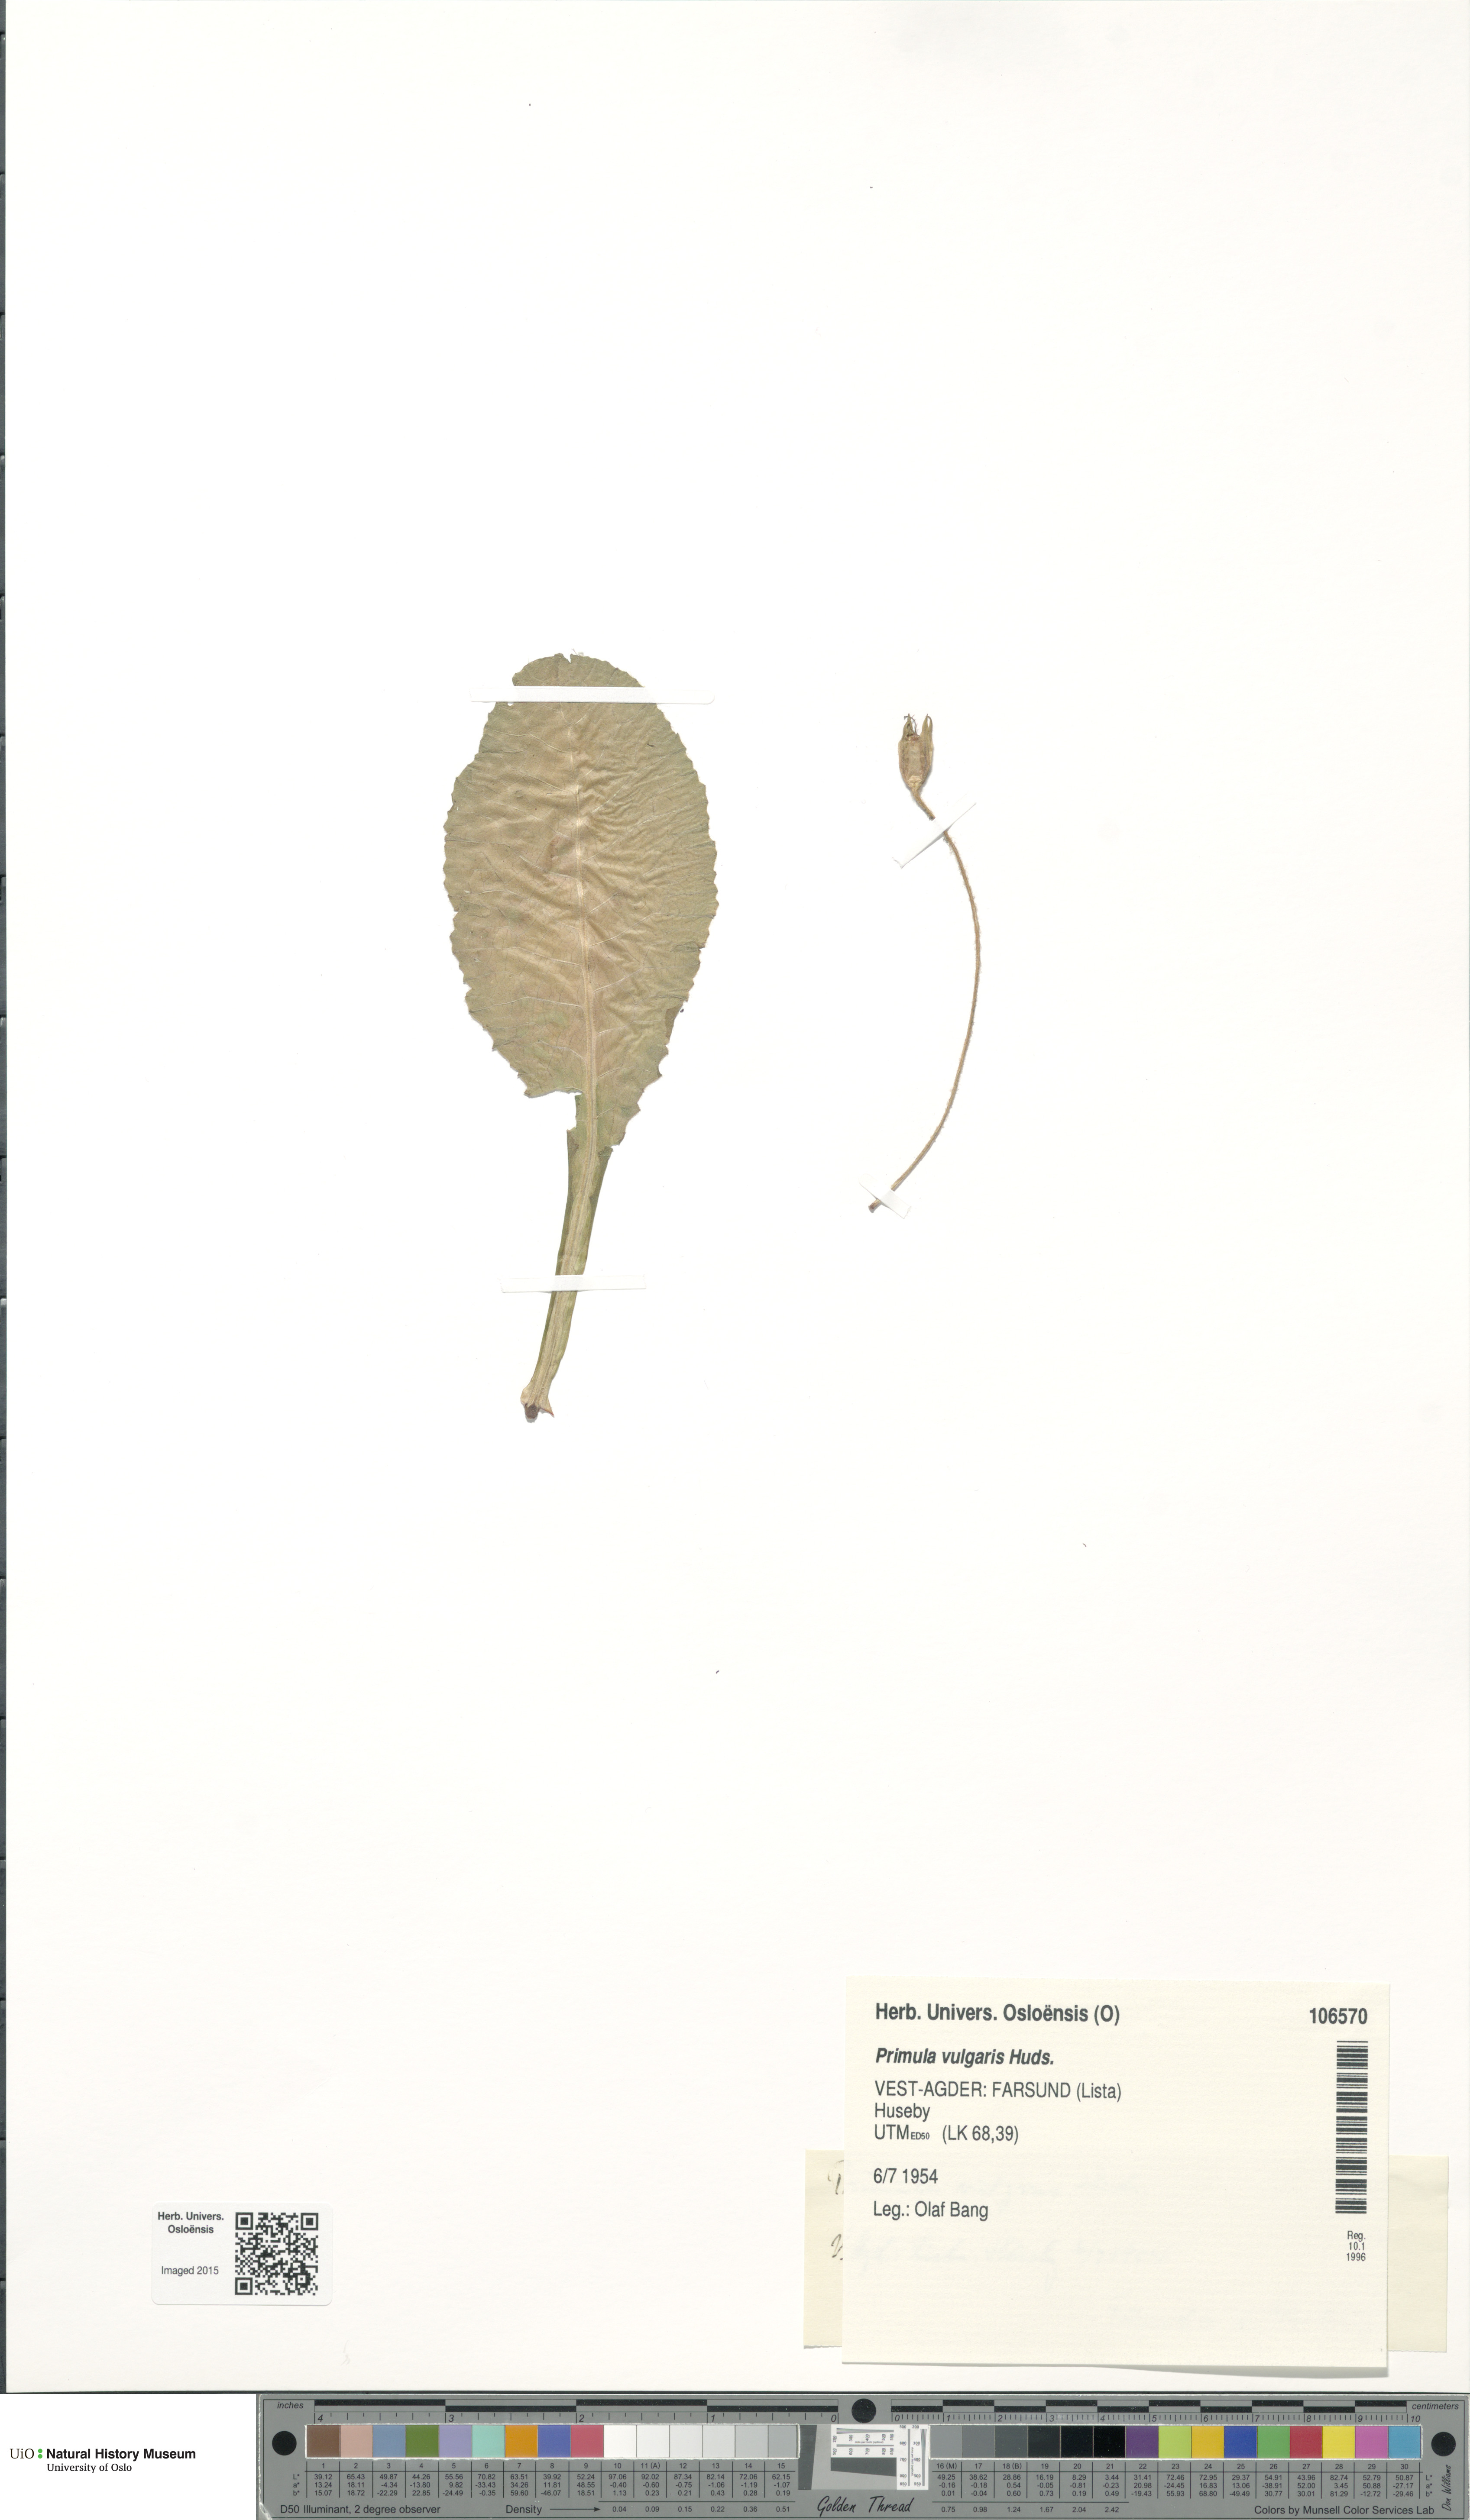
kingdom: Plantae
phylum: Tracheophyta
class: Magnoliopsida
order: Ericales
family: Primulaceae
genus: Primula
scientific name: Primula vulgaris
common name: Primrose
